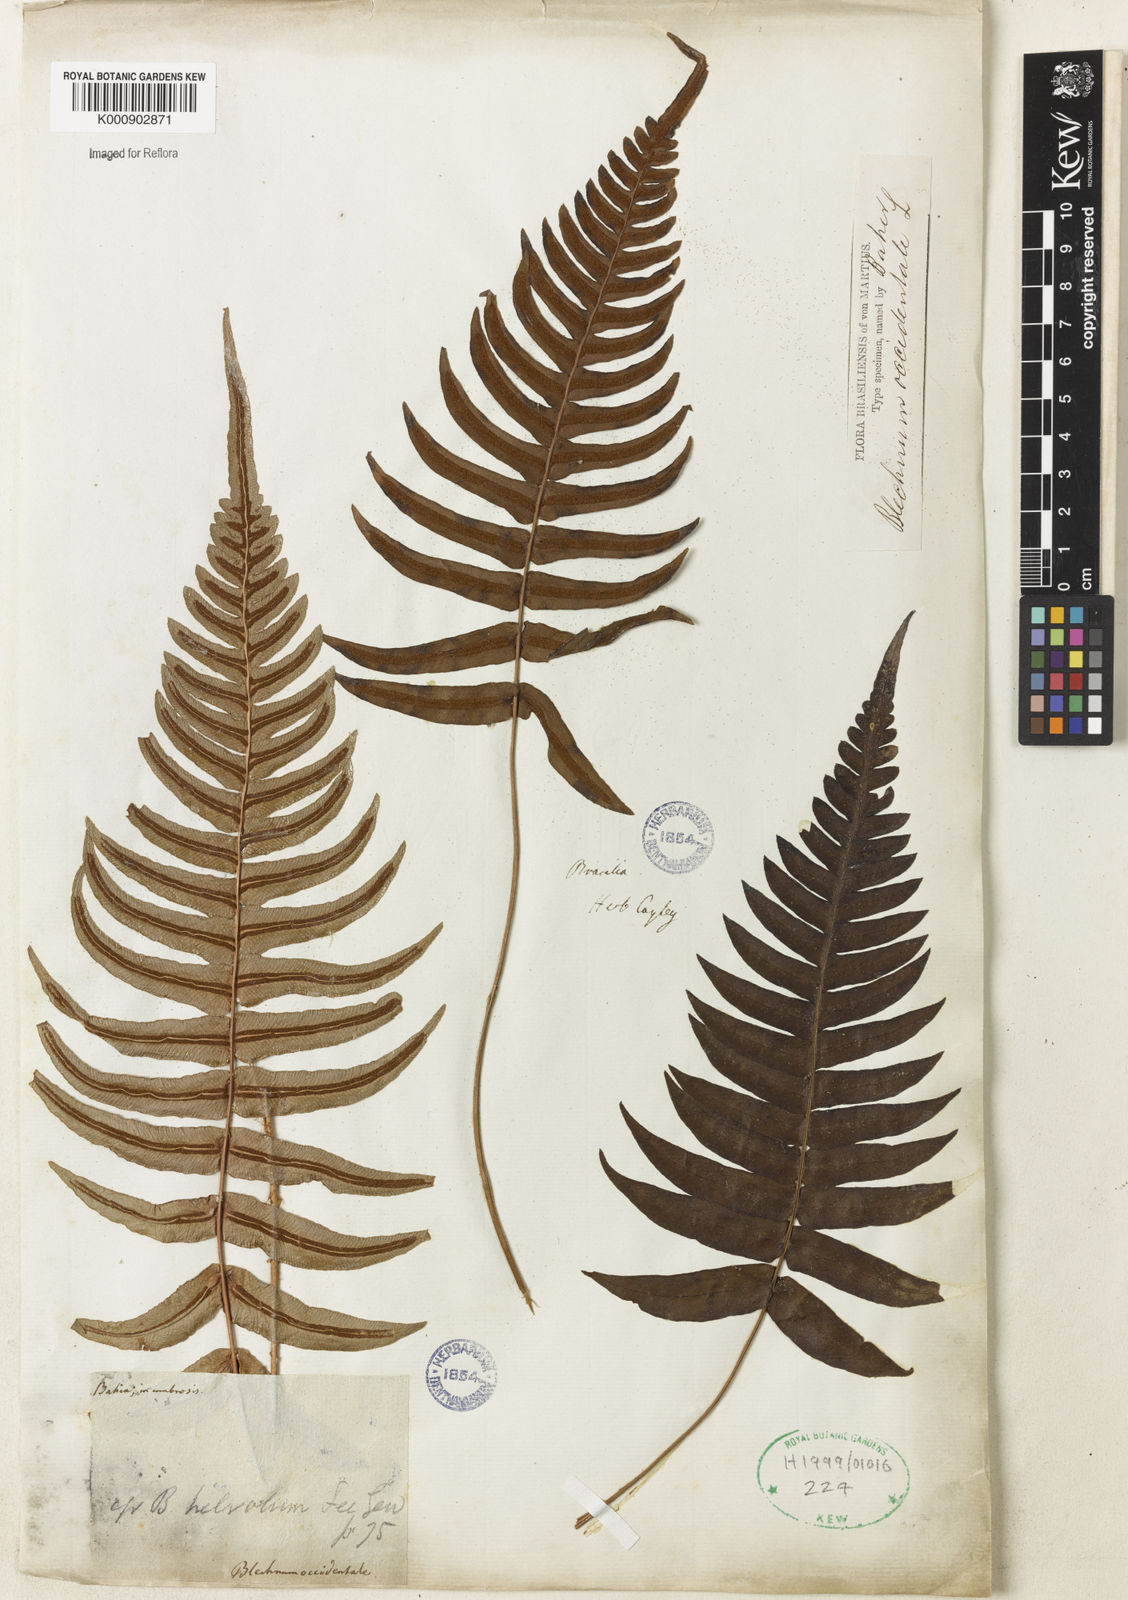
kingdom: Plantae
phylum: Tracheophyta
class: Polypodiopsida
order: Polypodiales
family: Blechnaceae
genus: Blechnum
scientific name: Blechnum occidentale
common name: Hammock fern
